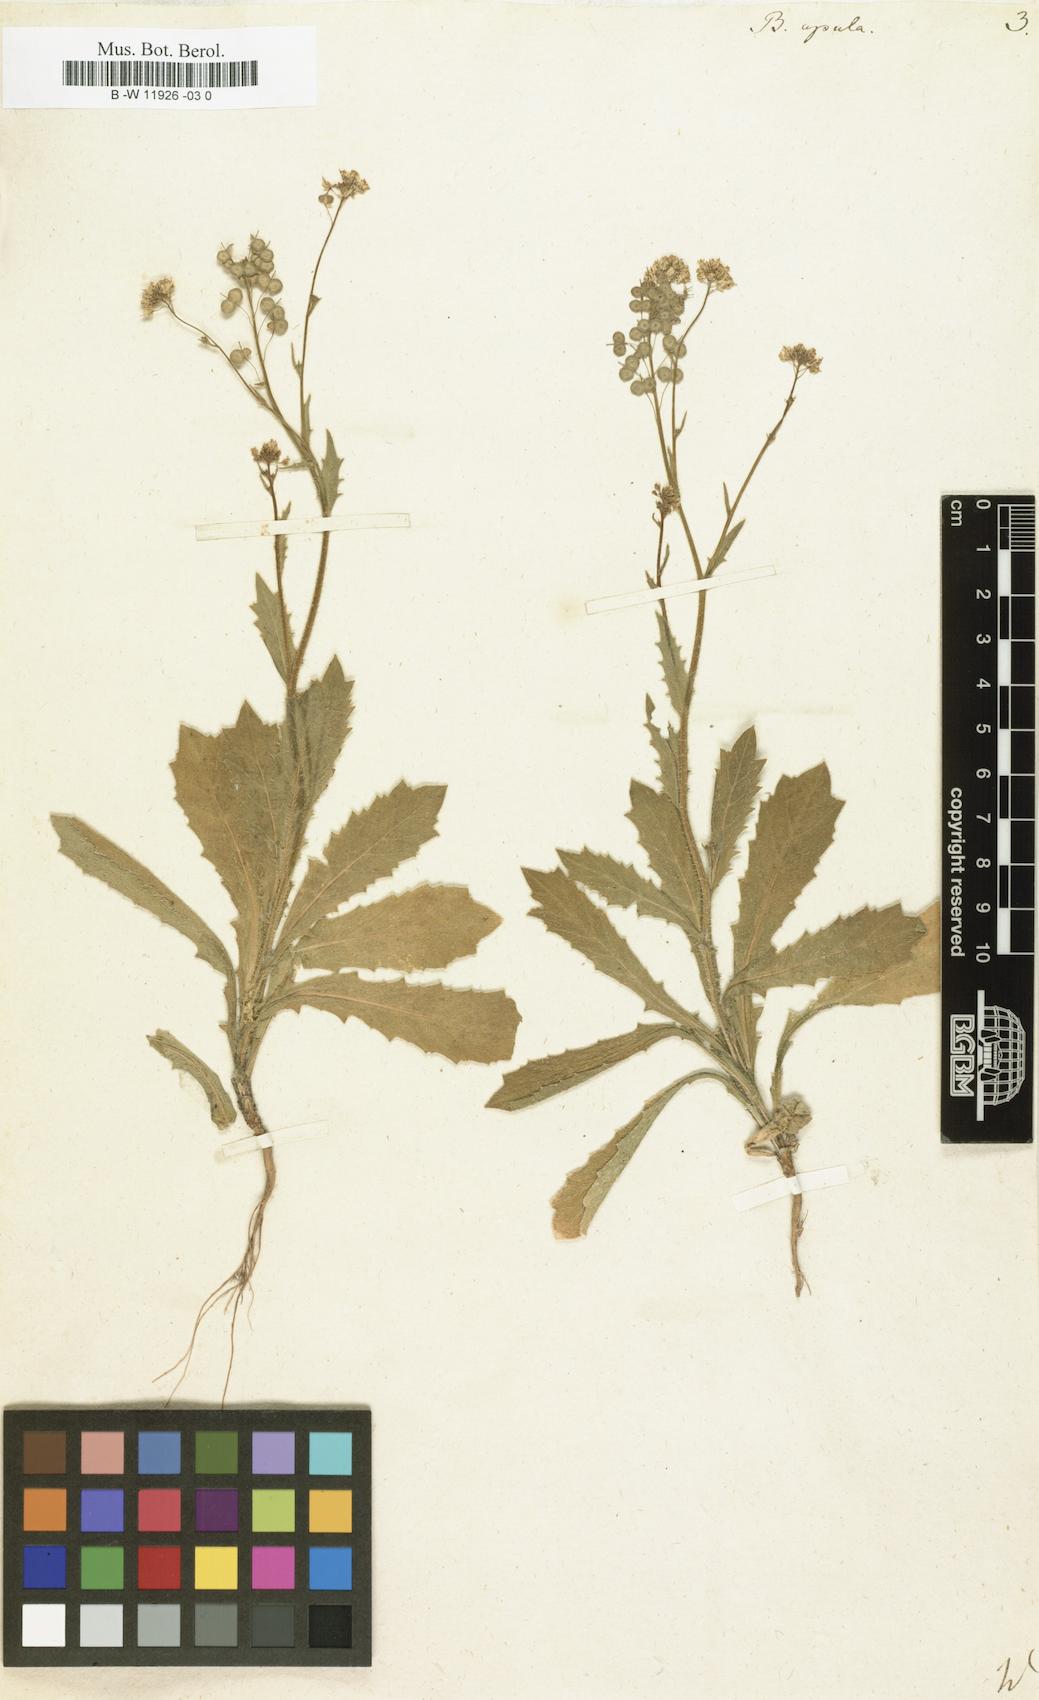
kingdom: Plantae
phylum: Tracheophyta
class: Magnoliopsida
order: Brassicales
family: Brassicaceae
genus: Biscutella
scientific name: Biscutella apula
